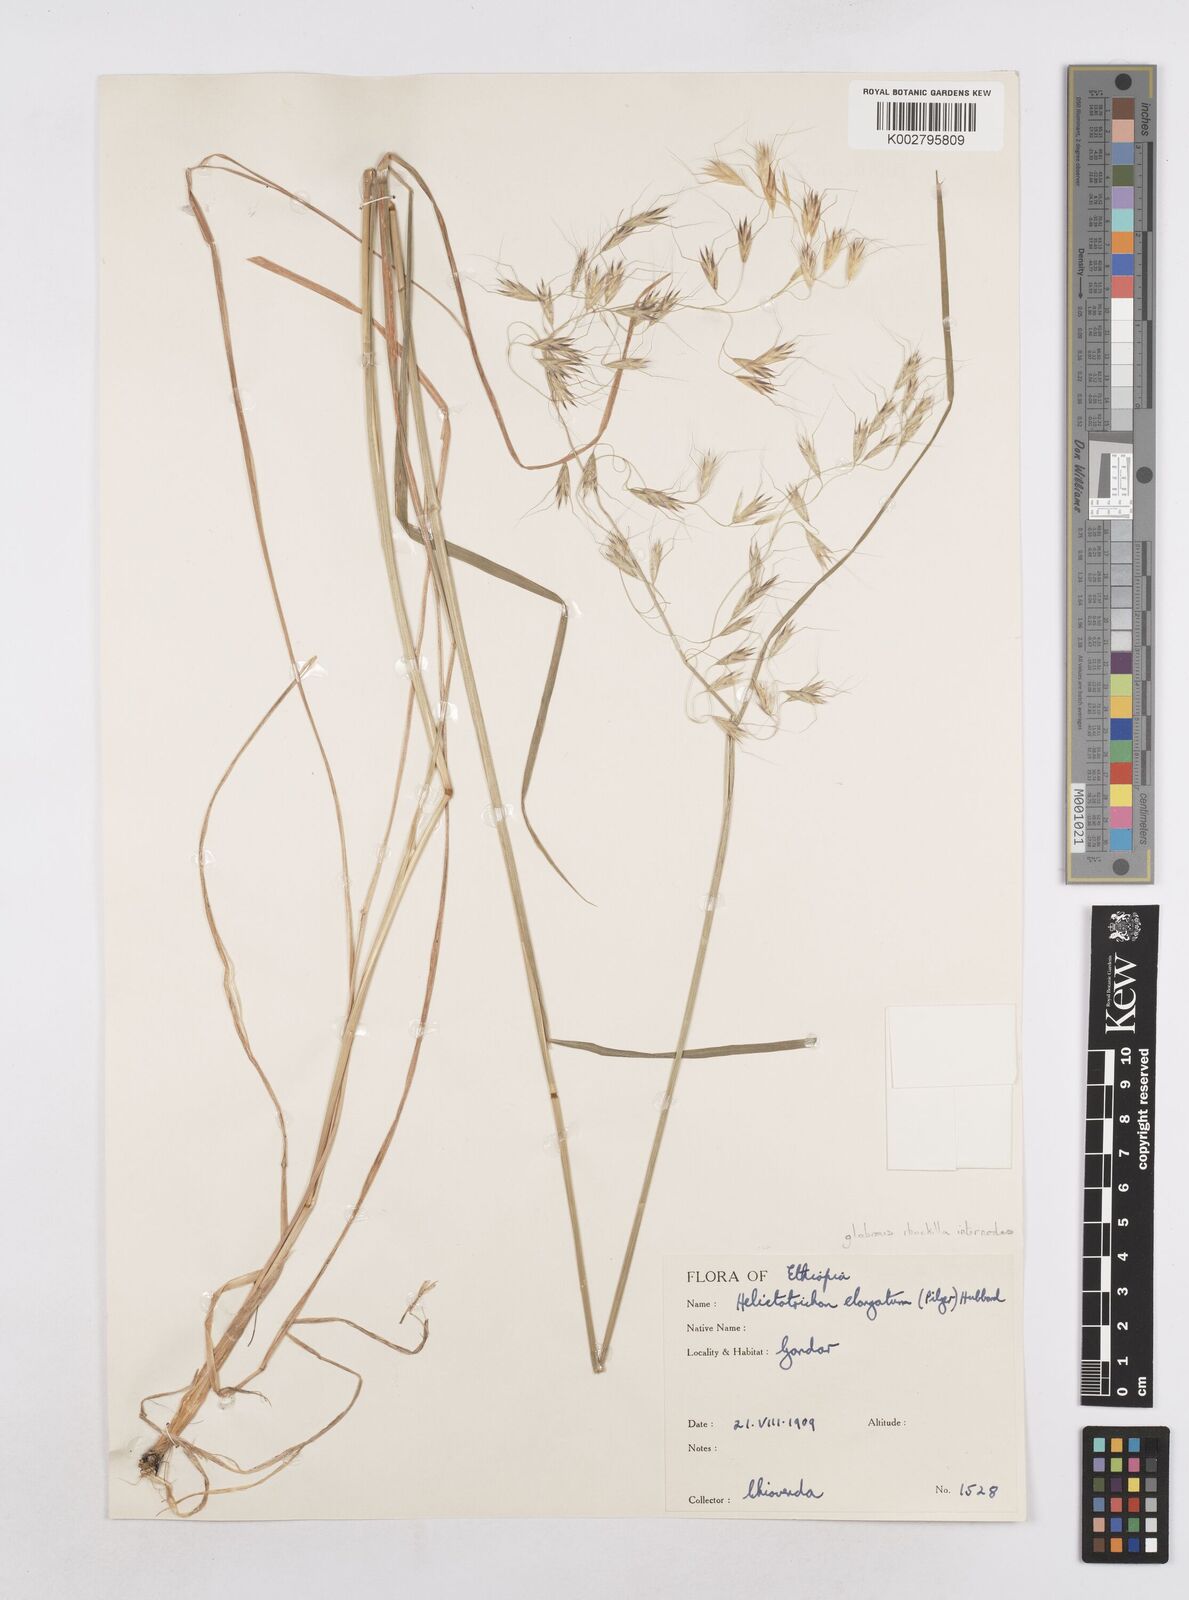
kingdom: Plantae
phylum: Tracheophyta
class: Liliopsida
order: Poales
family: Poaceae
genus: Trisetopsis
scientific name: Trisetopsis elongata
